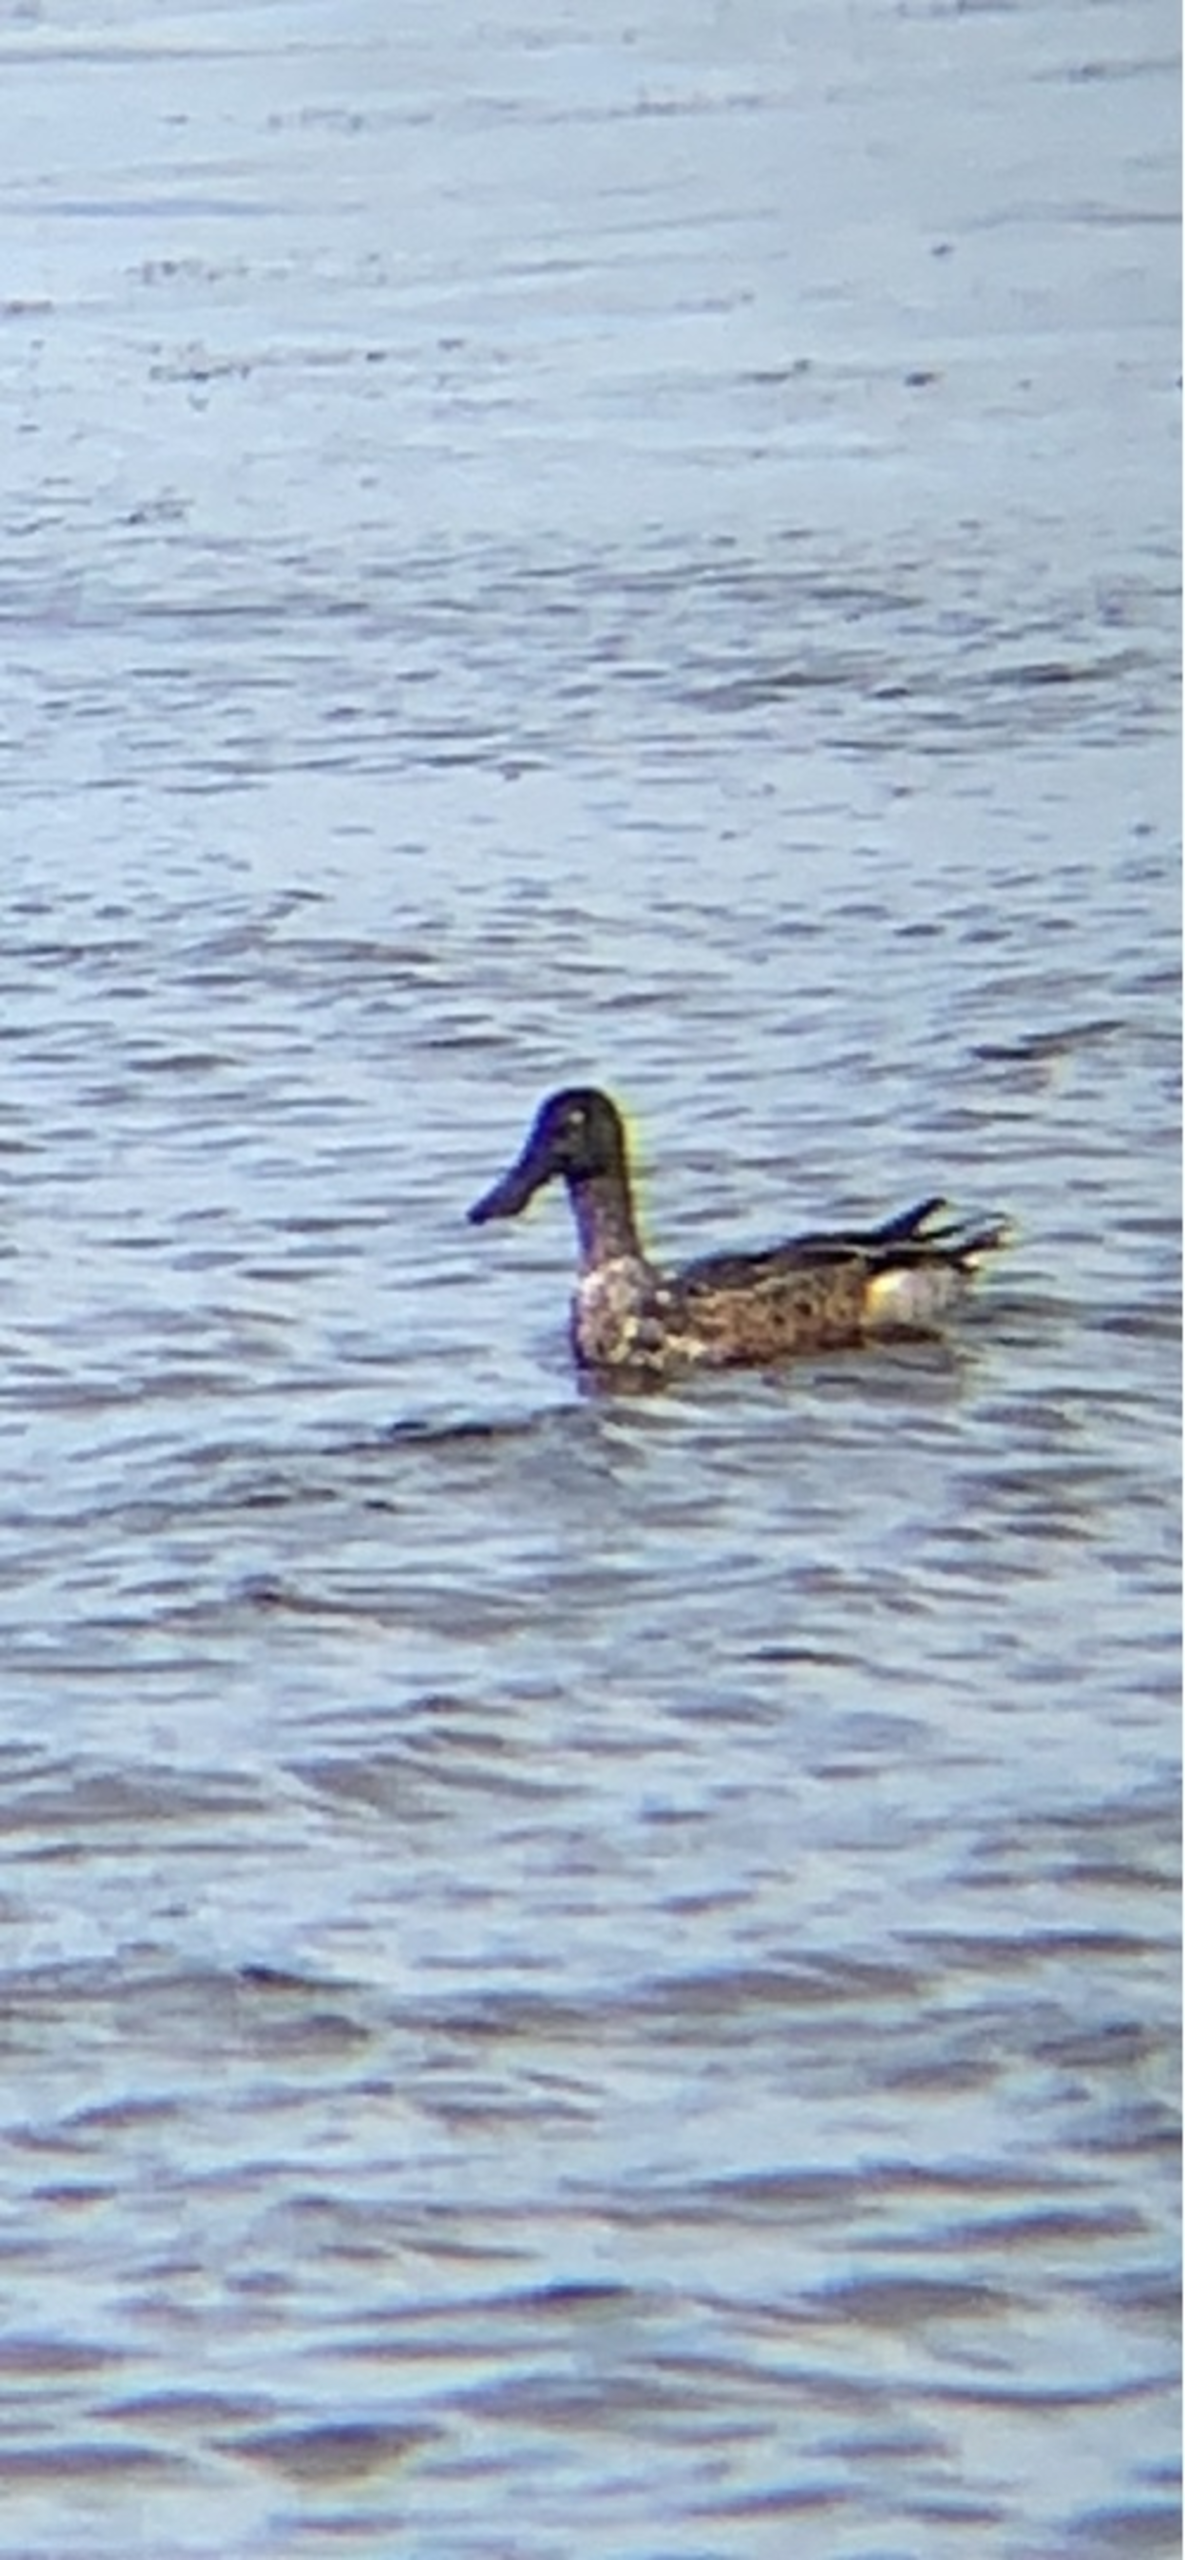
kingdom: Animalia
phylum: Chordata
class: Aves
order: Anseriformes
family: Anatidae
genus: Spatula
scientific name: Spatula clypeata
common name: Skeand
